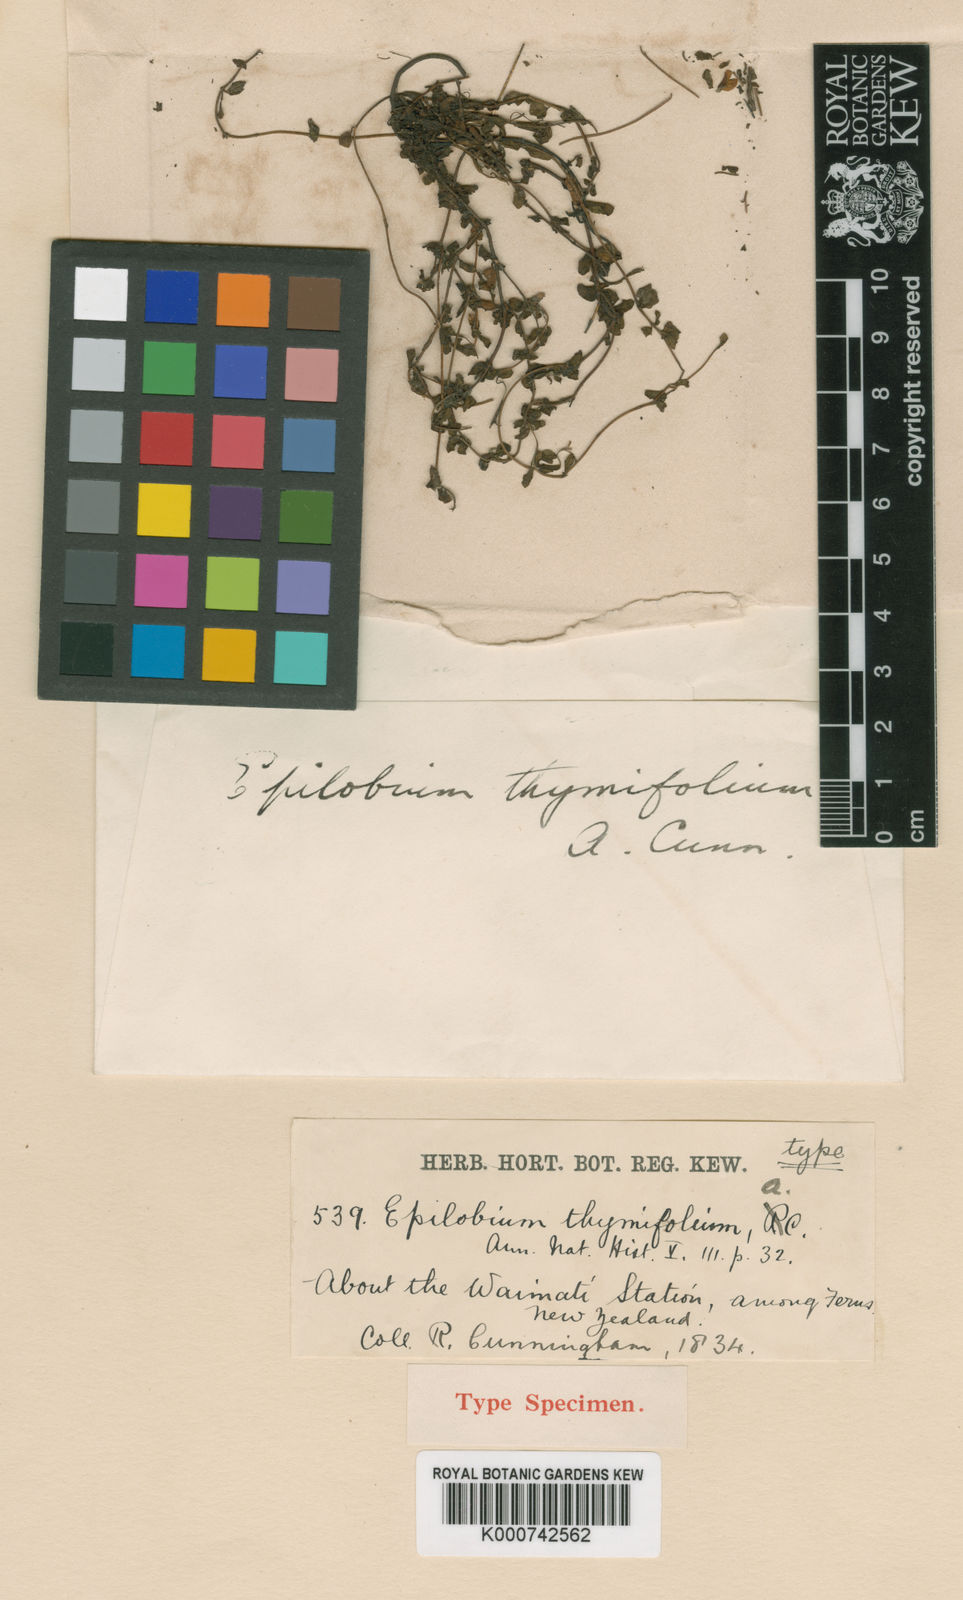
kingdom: Plantae
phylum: Tracheophyta
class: Magnoliopsida
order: Myrtales
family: Onagraceae
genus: Epilobium
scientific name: Epilobium alsinoides
